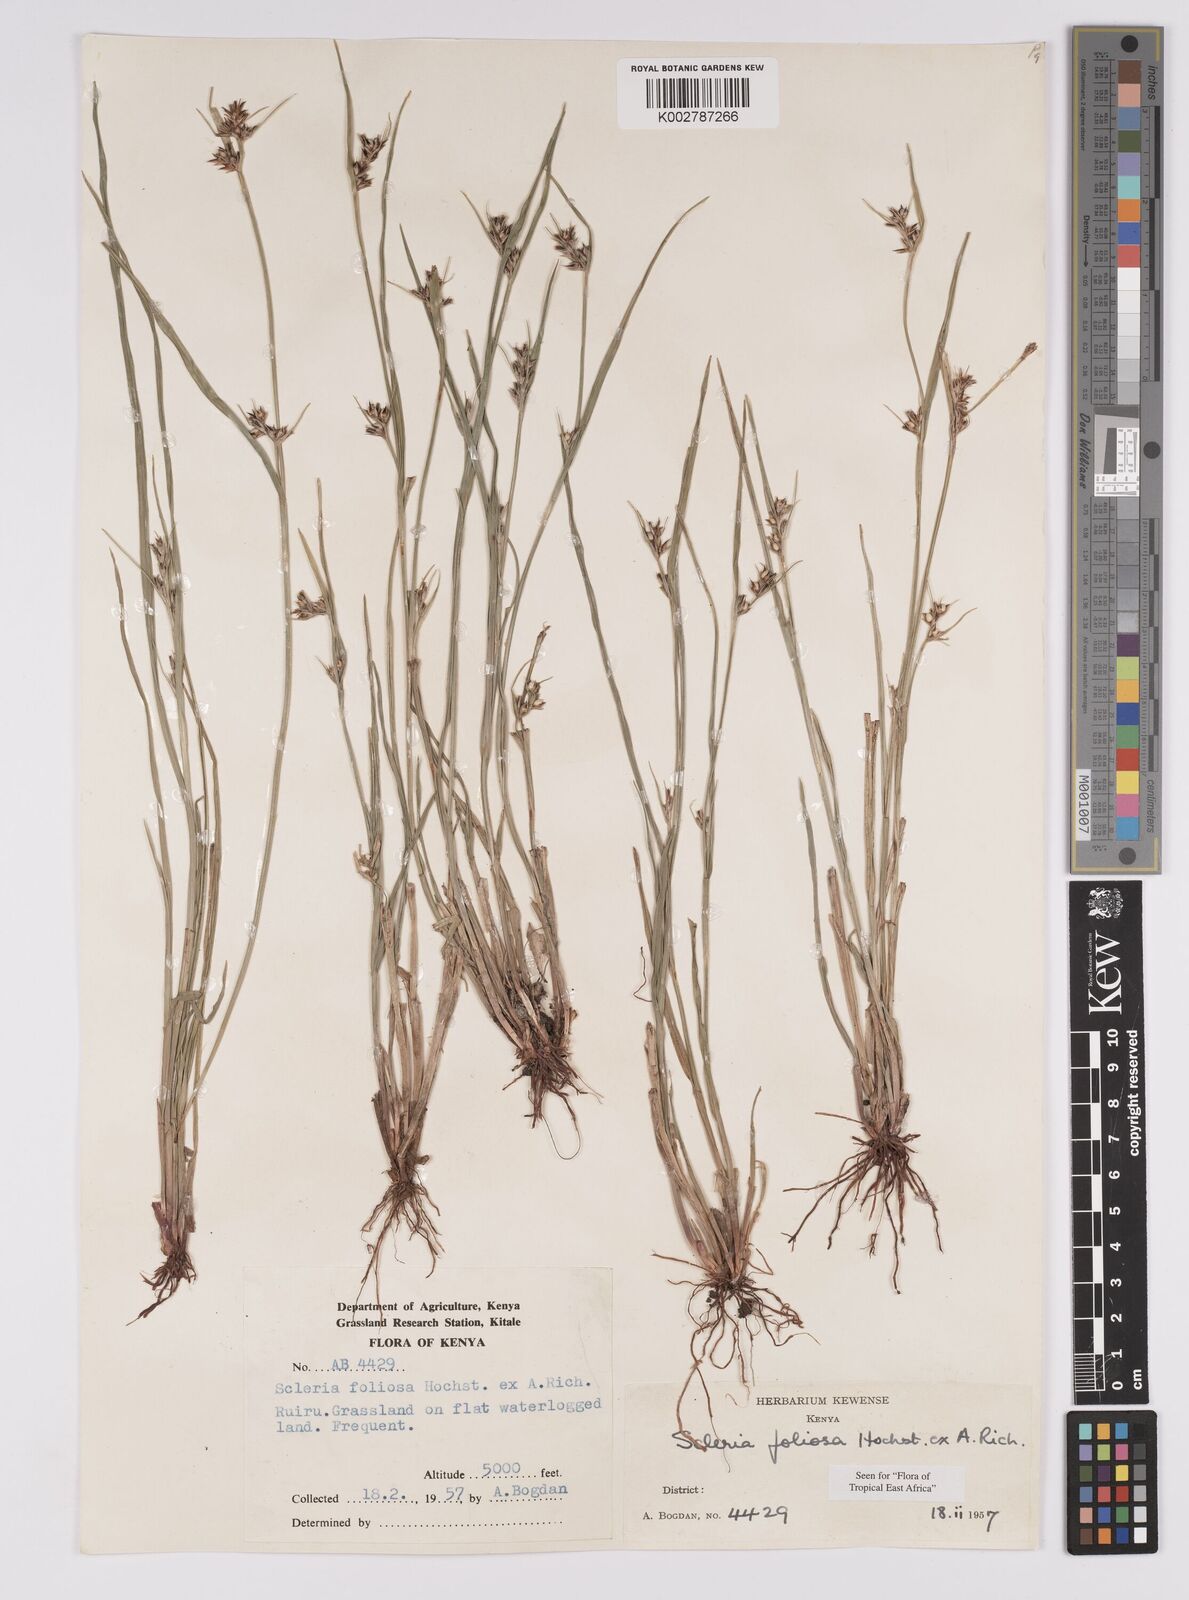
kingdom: Plantae
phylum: Tracheophyta
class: Liliopsida
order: Poales
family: Cyperaceae
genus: Scleria
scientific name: Scleria foliosa
